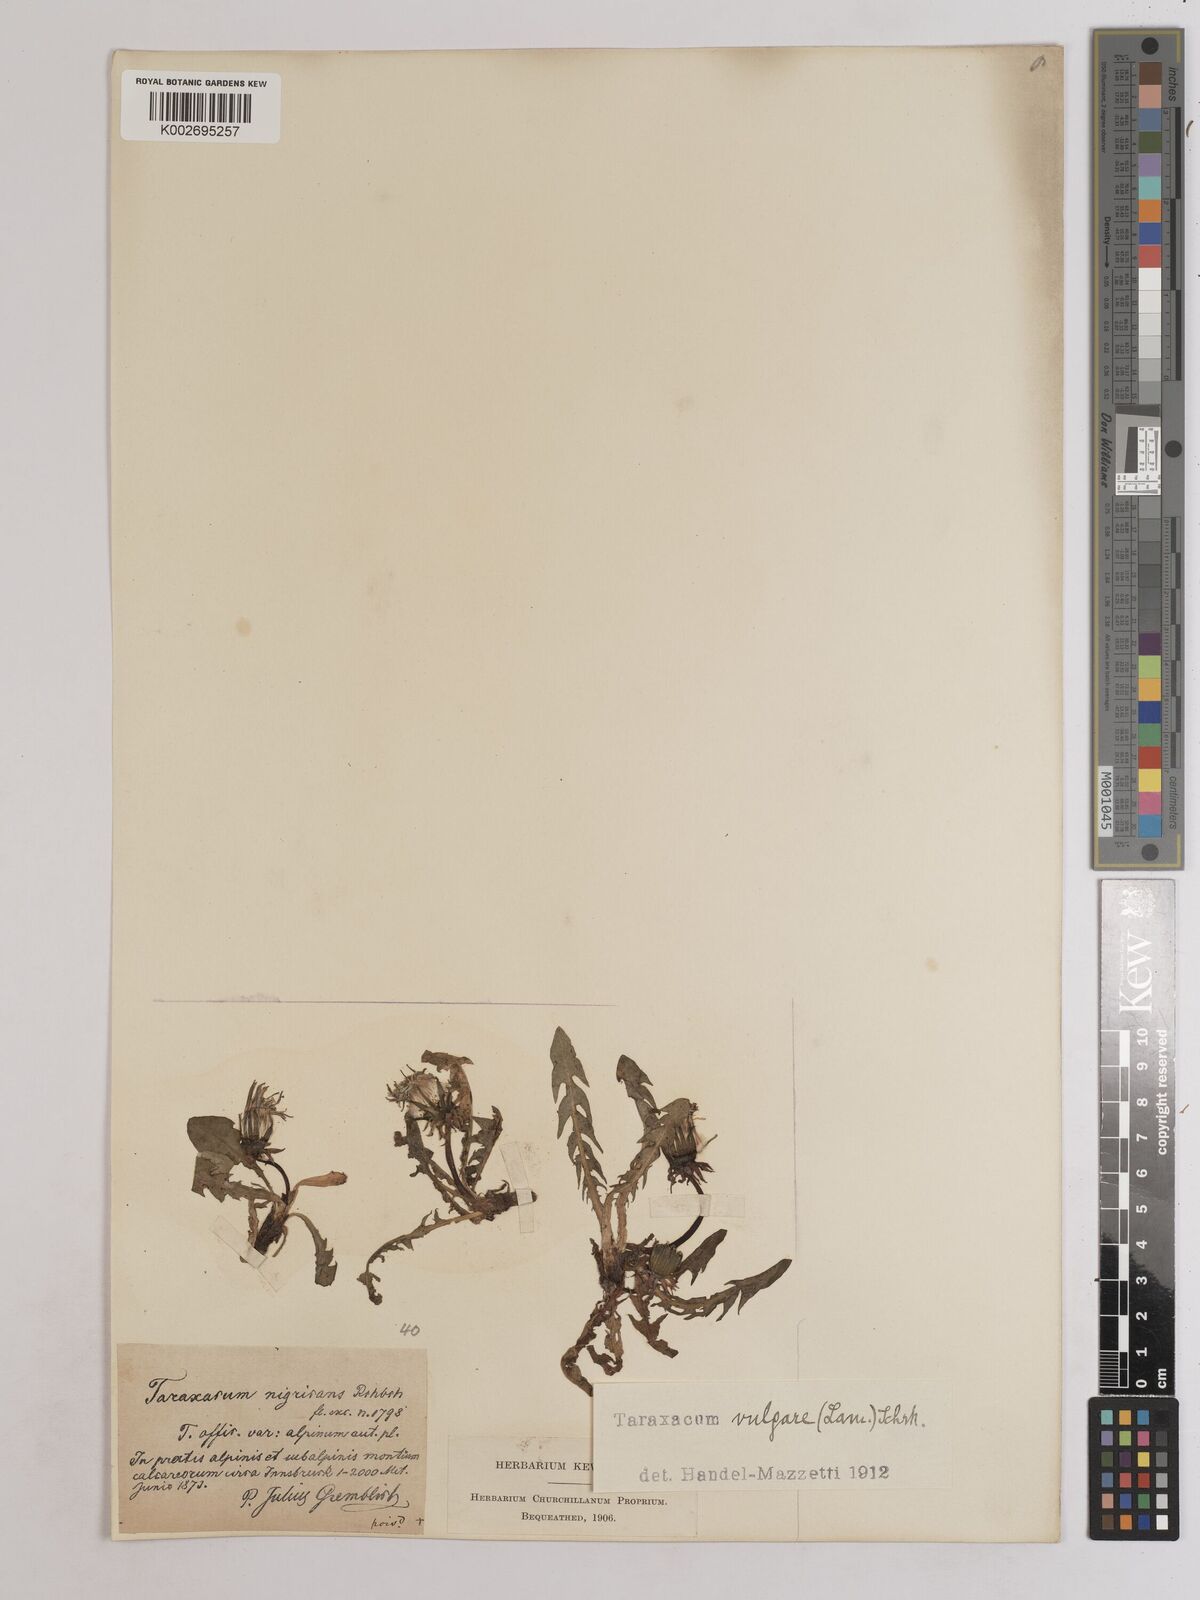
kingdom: Plantae
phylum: Tracheophyta
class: Magnoliopsida
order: Asterales
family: Asteraceae
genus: Taraxacum
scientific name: Taraxacum officinale
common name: Common dandelion
